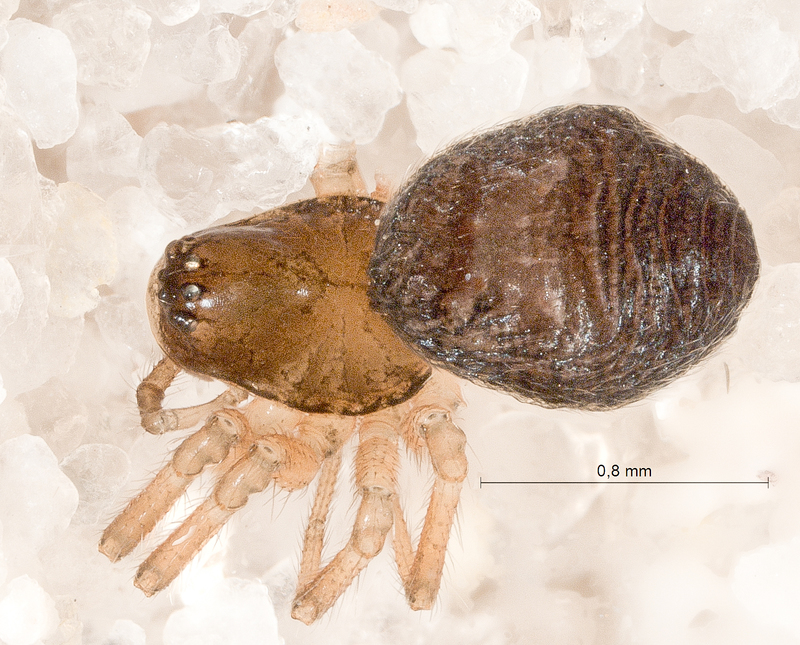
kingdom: Animalia
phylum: Arthropoda
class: Arachnida
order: Araneae
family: Linyphiidae
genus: Styloctetor
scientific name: Styloctetor romanus
